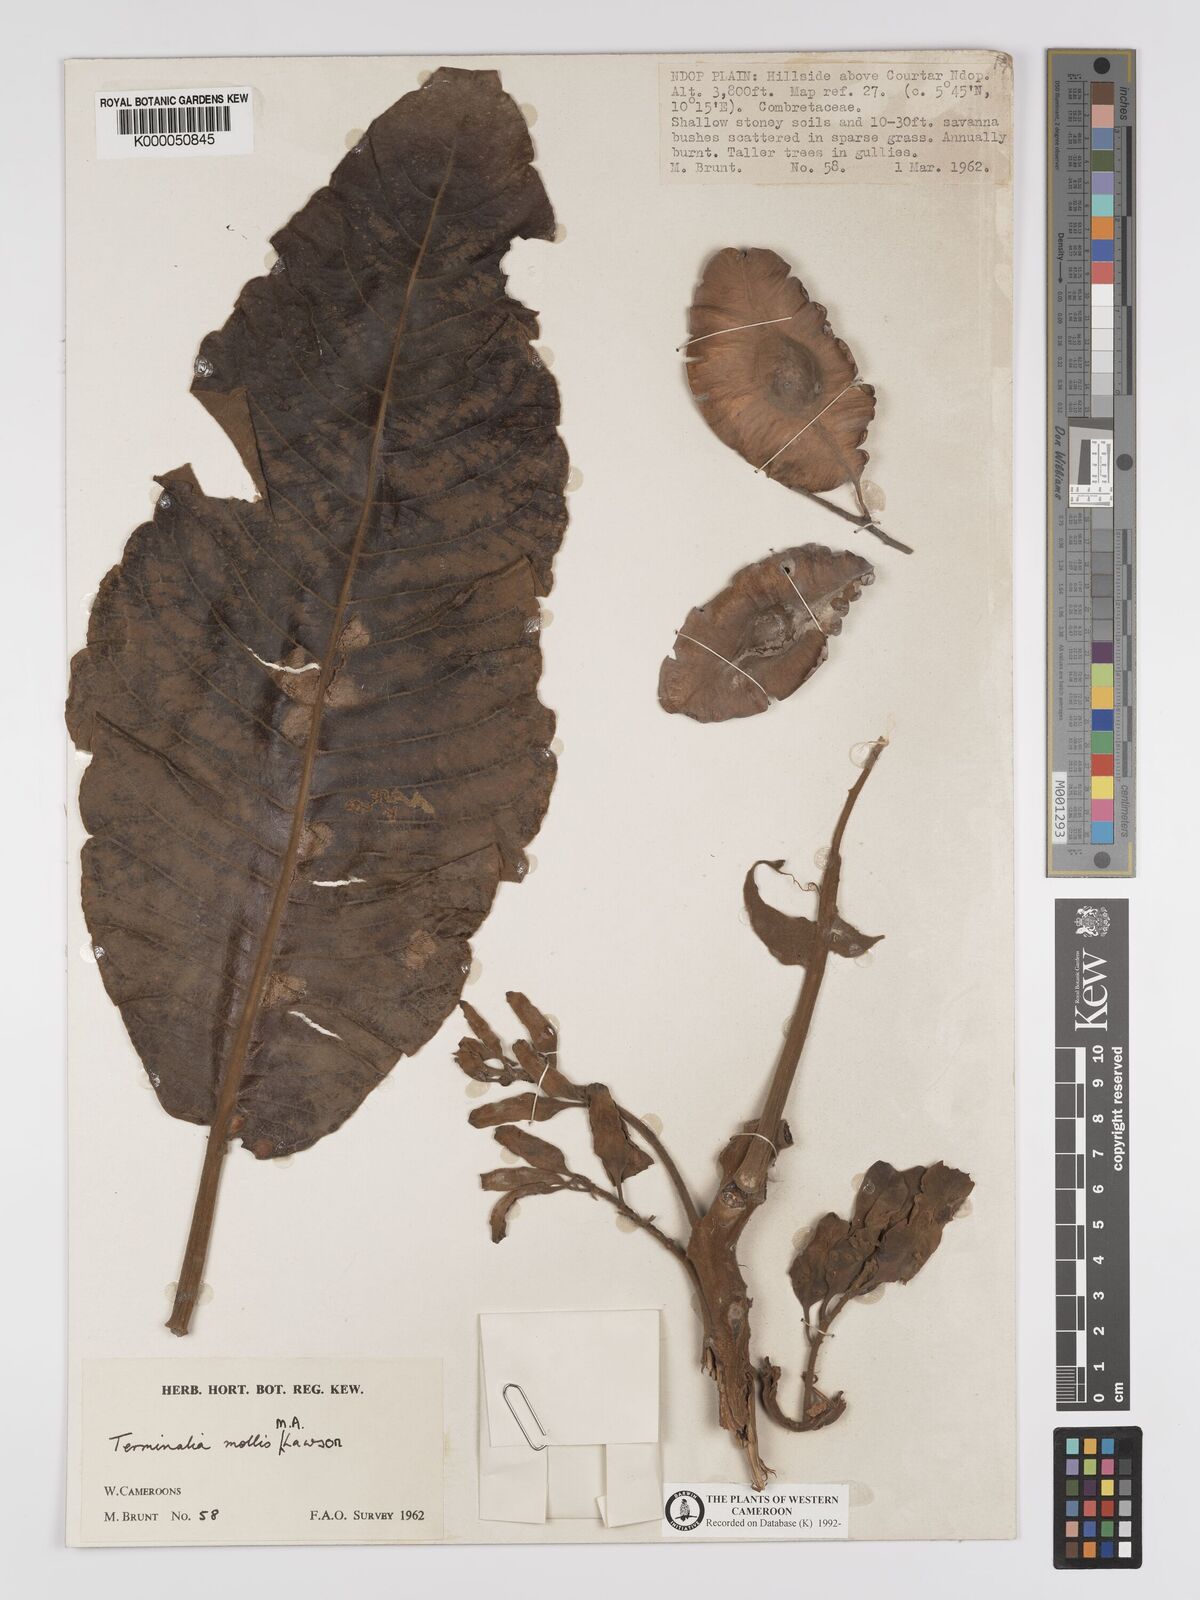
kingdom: Plantae
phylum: Tracheophyta
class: Magnoliopsida
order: Myrtales
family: Combretaceae
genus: Terminalia
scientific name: Terminalia mollis
